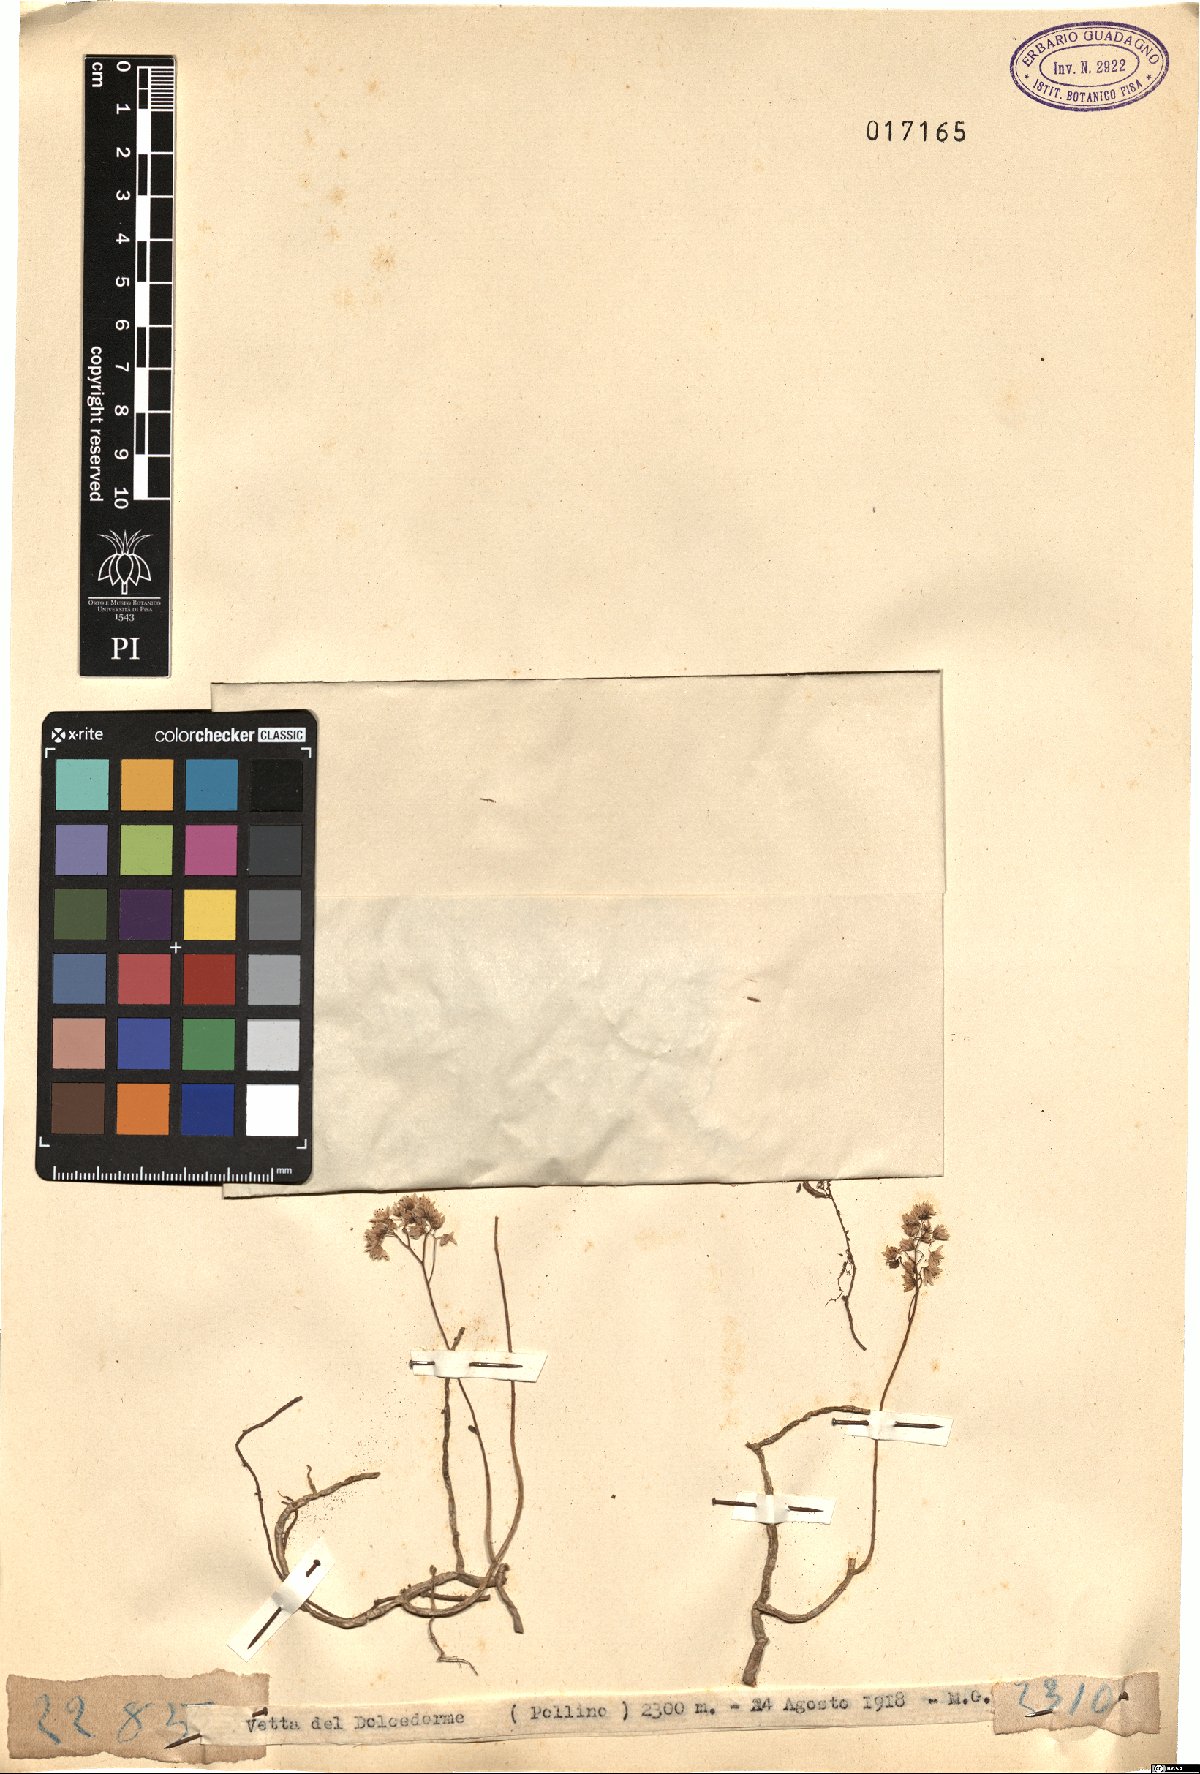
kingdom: Plantae
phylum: Tracheophyta
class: Magnoliopsida
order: Saxifragales
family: Crassulaceae
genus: Sedum
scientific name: Sedum
